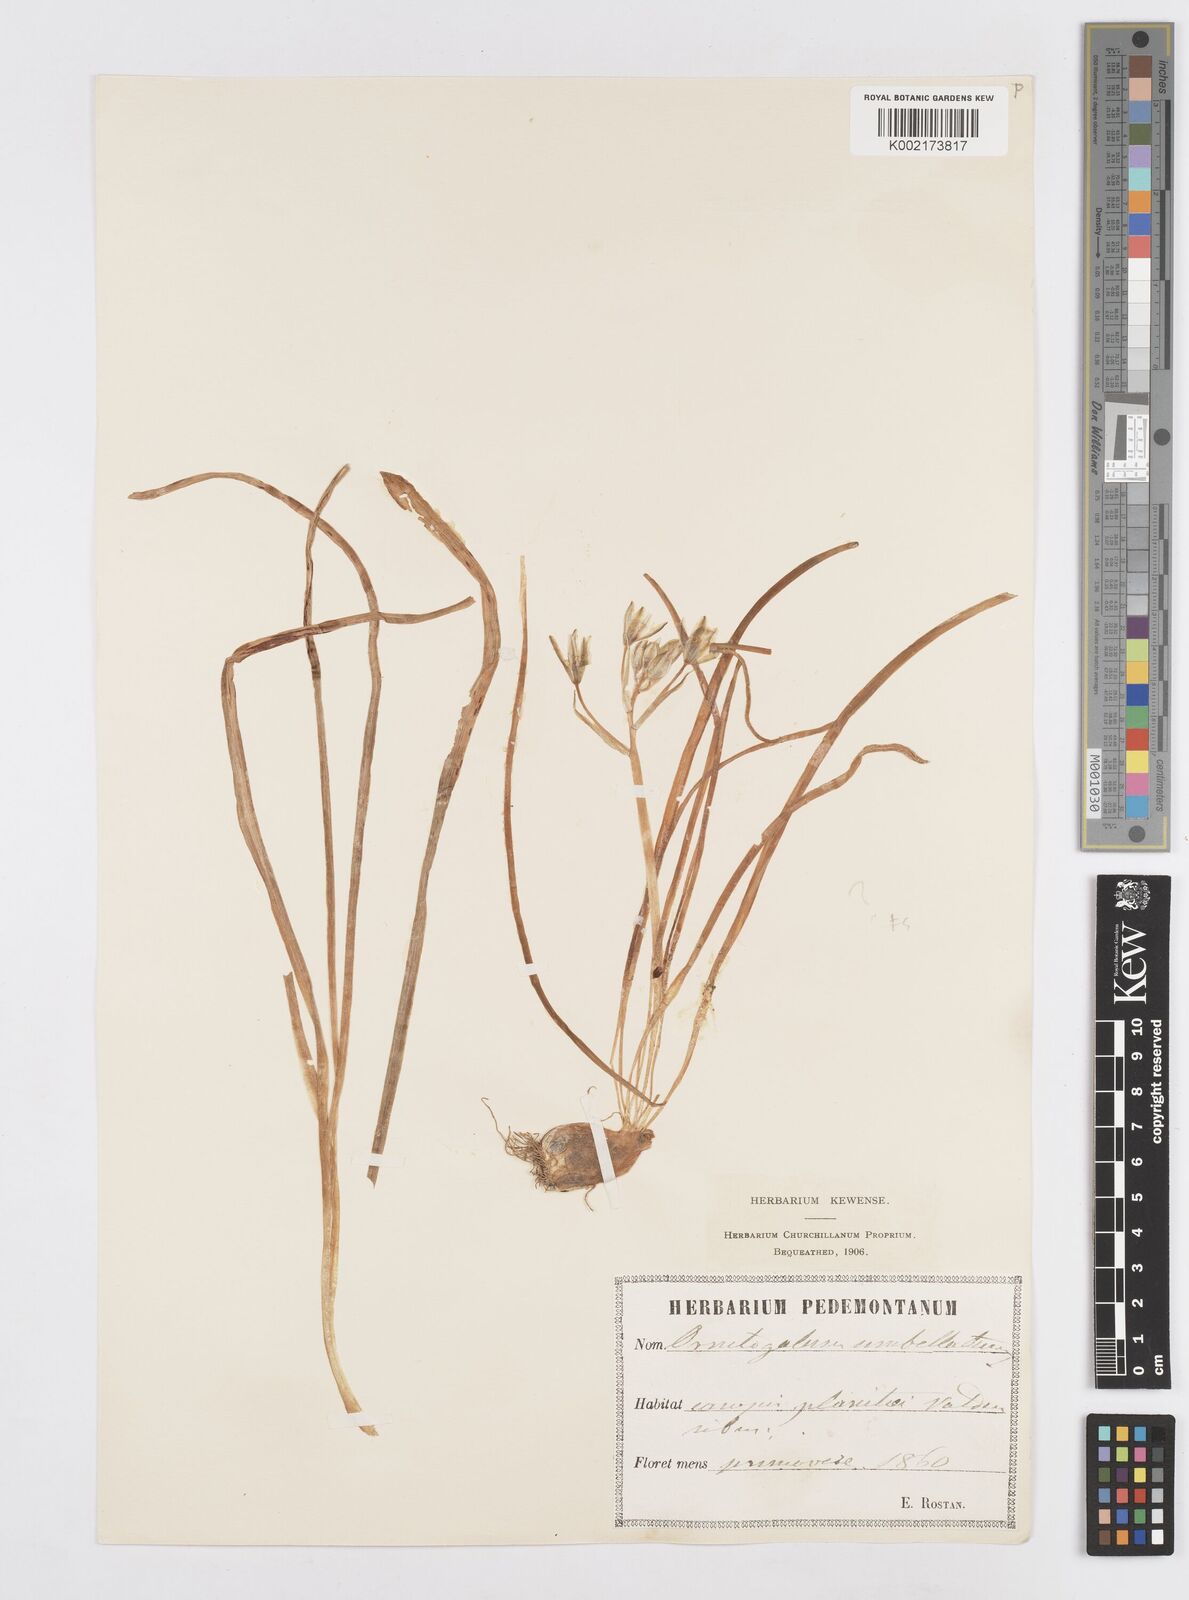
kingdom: Plantae
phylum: Tracheophyta
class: Liliopsida
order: Asparagales
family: Asparagaceae
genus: Ornithogalum
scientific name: Ornithogalum umbellatum
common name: Garden star-of-bethlehem
